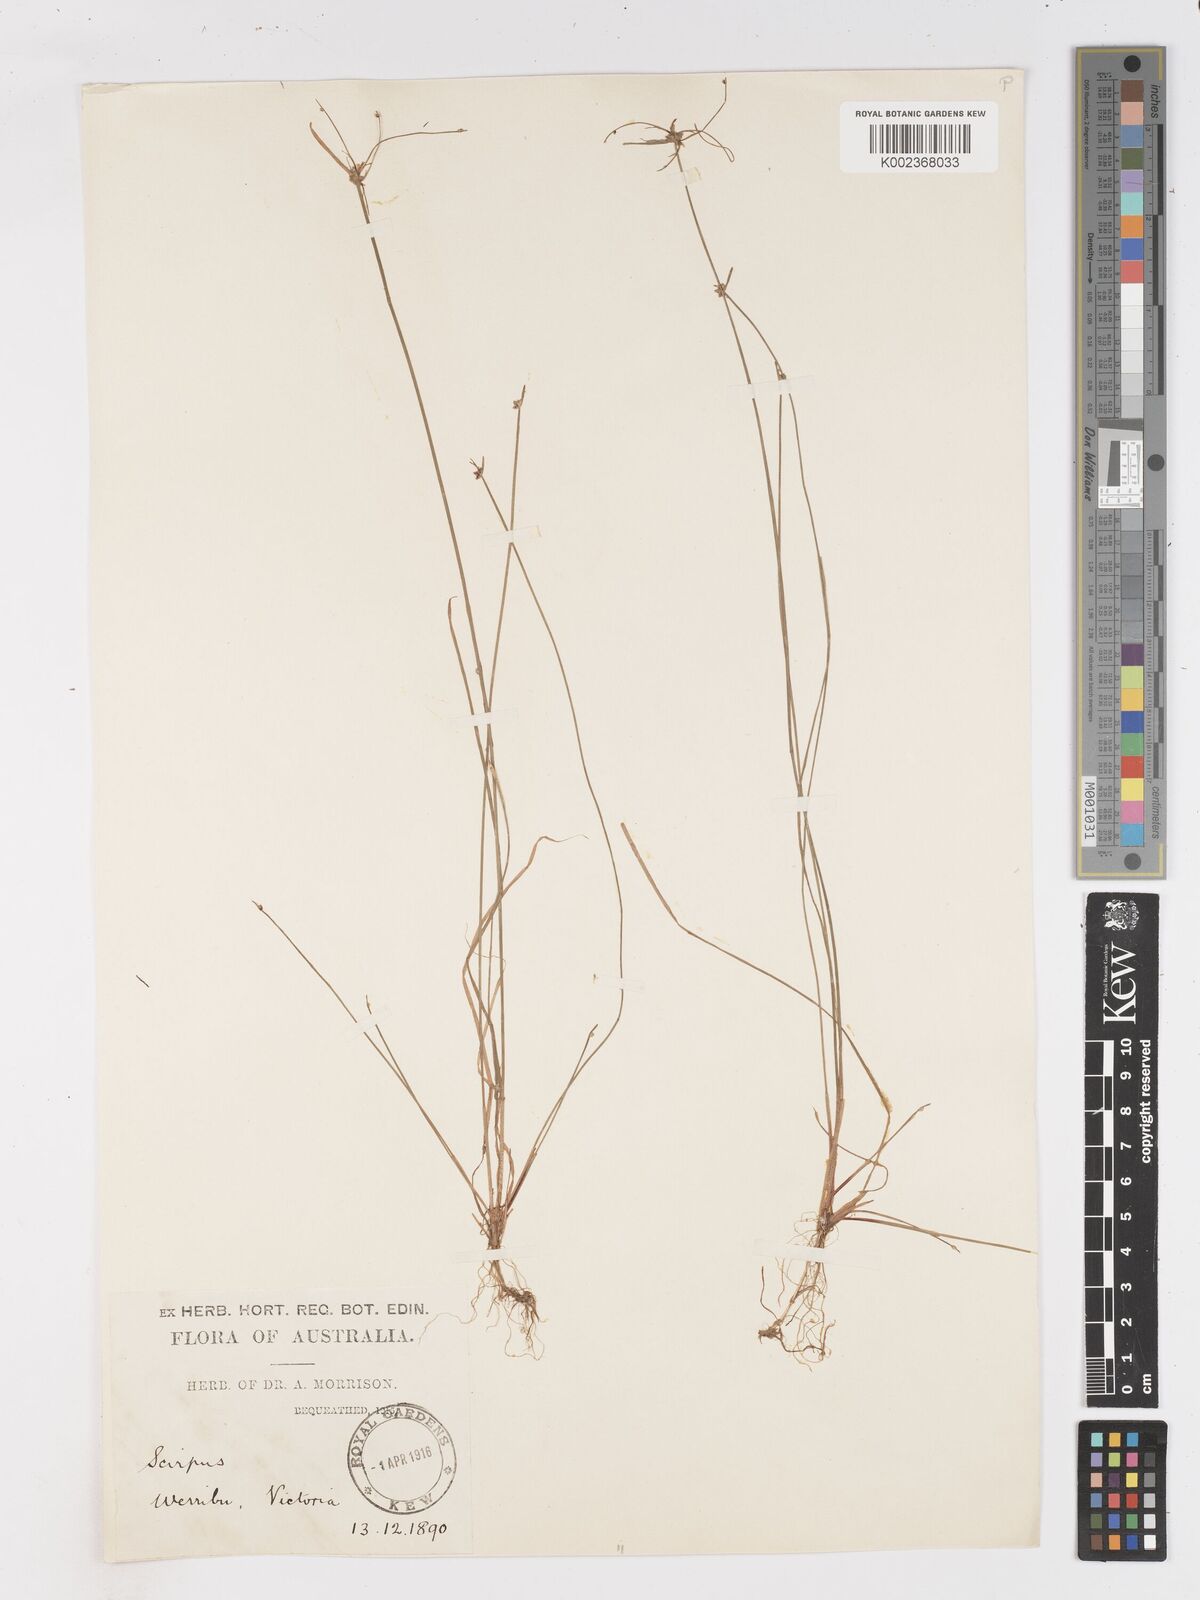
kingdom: Plantae
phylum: Tracheophyta
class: Liliopsida
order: Poales
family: Cyperaceae
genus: Isolepis
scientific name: Isolepis inundata
